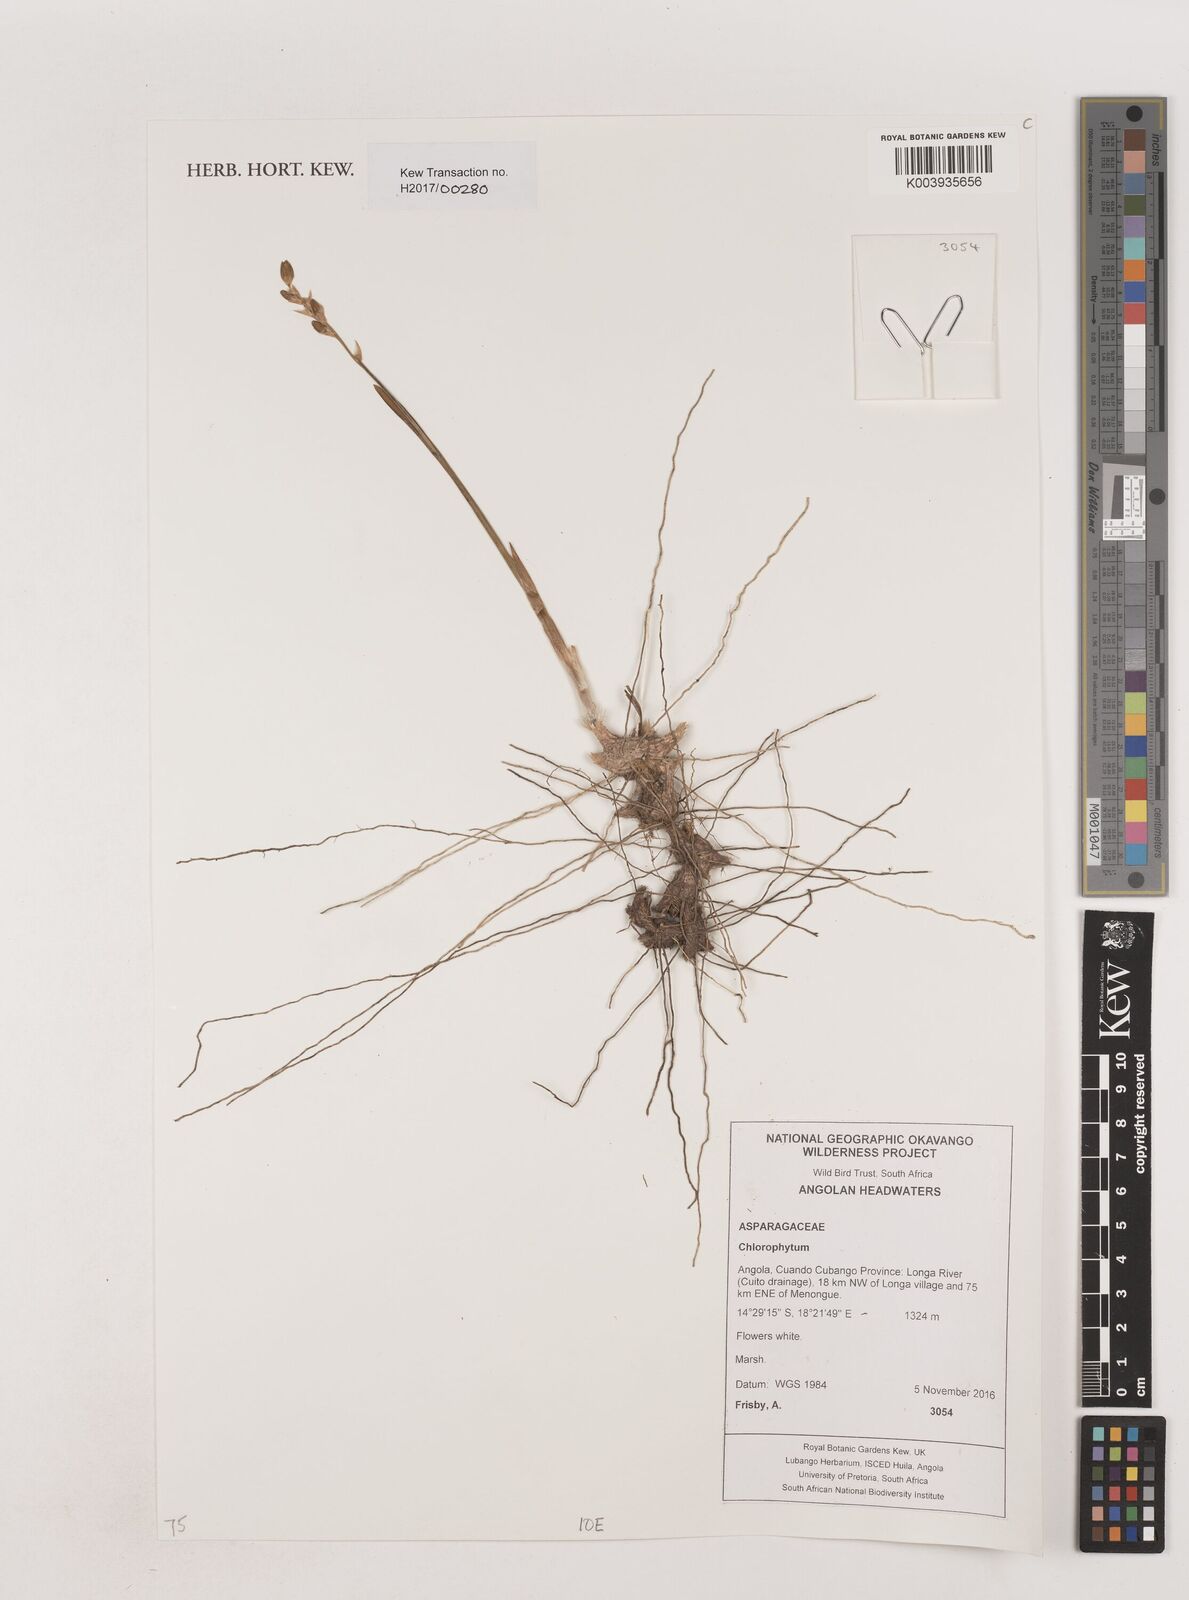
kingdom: Plantae
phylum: Tracheophyta
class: Liliopsida
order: Asparagales
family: Asparagaceae
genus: Chlorophytum
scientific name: Chlorophytum
